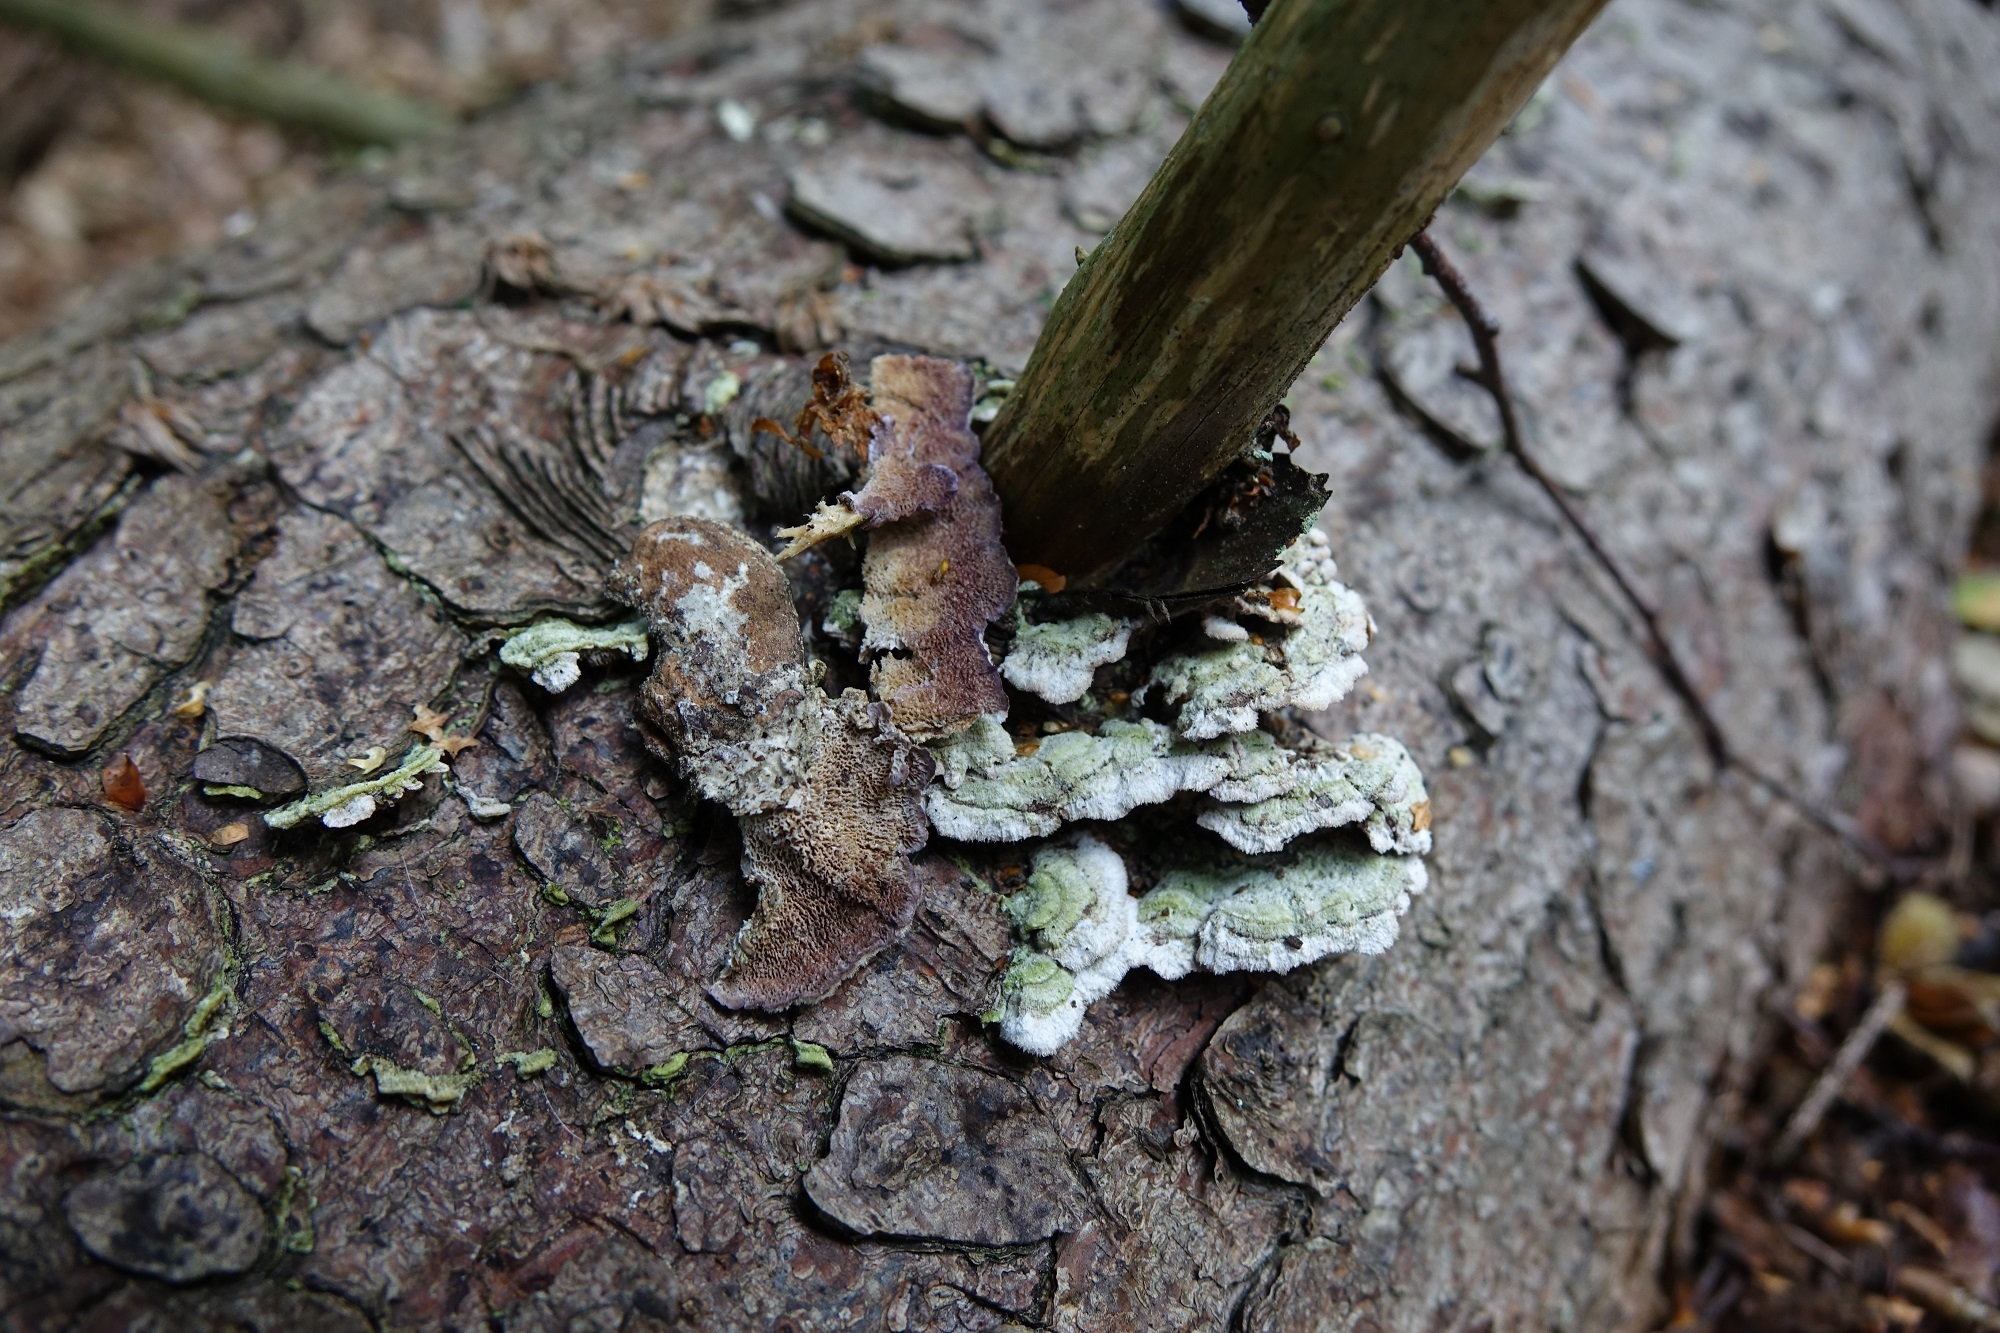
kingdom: Fungi
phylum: Basidiomycota
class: Agaricomycetes
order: Hymenochaetales
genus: Trichaptum
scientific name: Trichaptum abietinum
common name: Purplepore bracket
